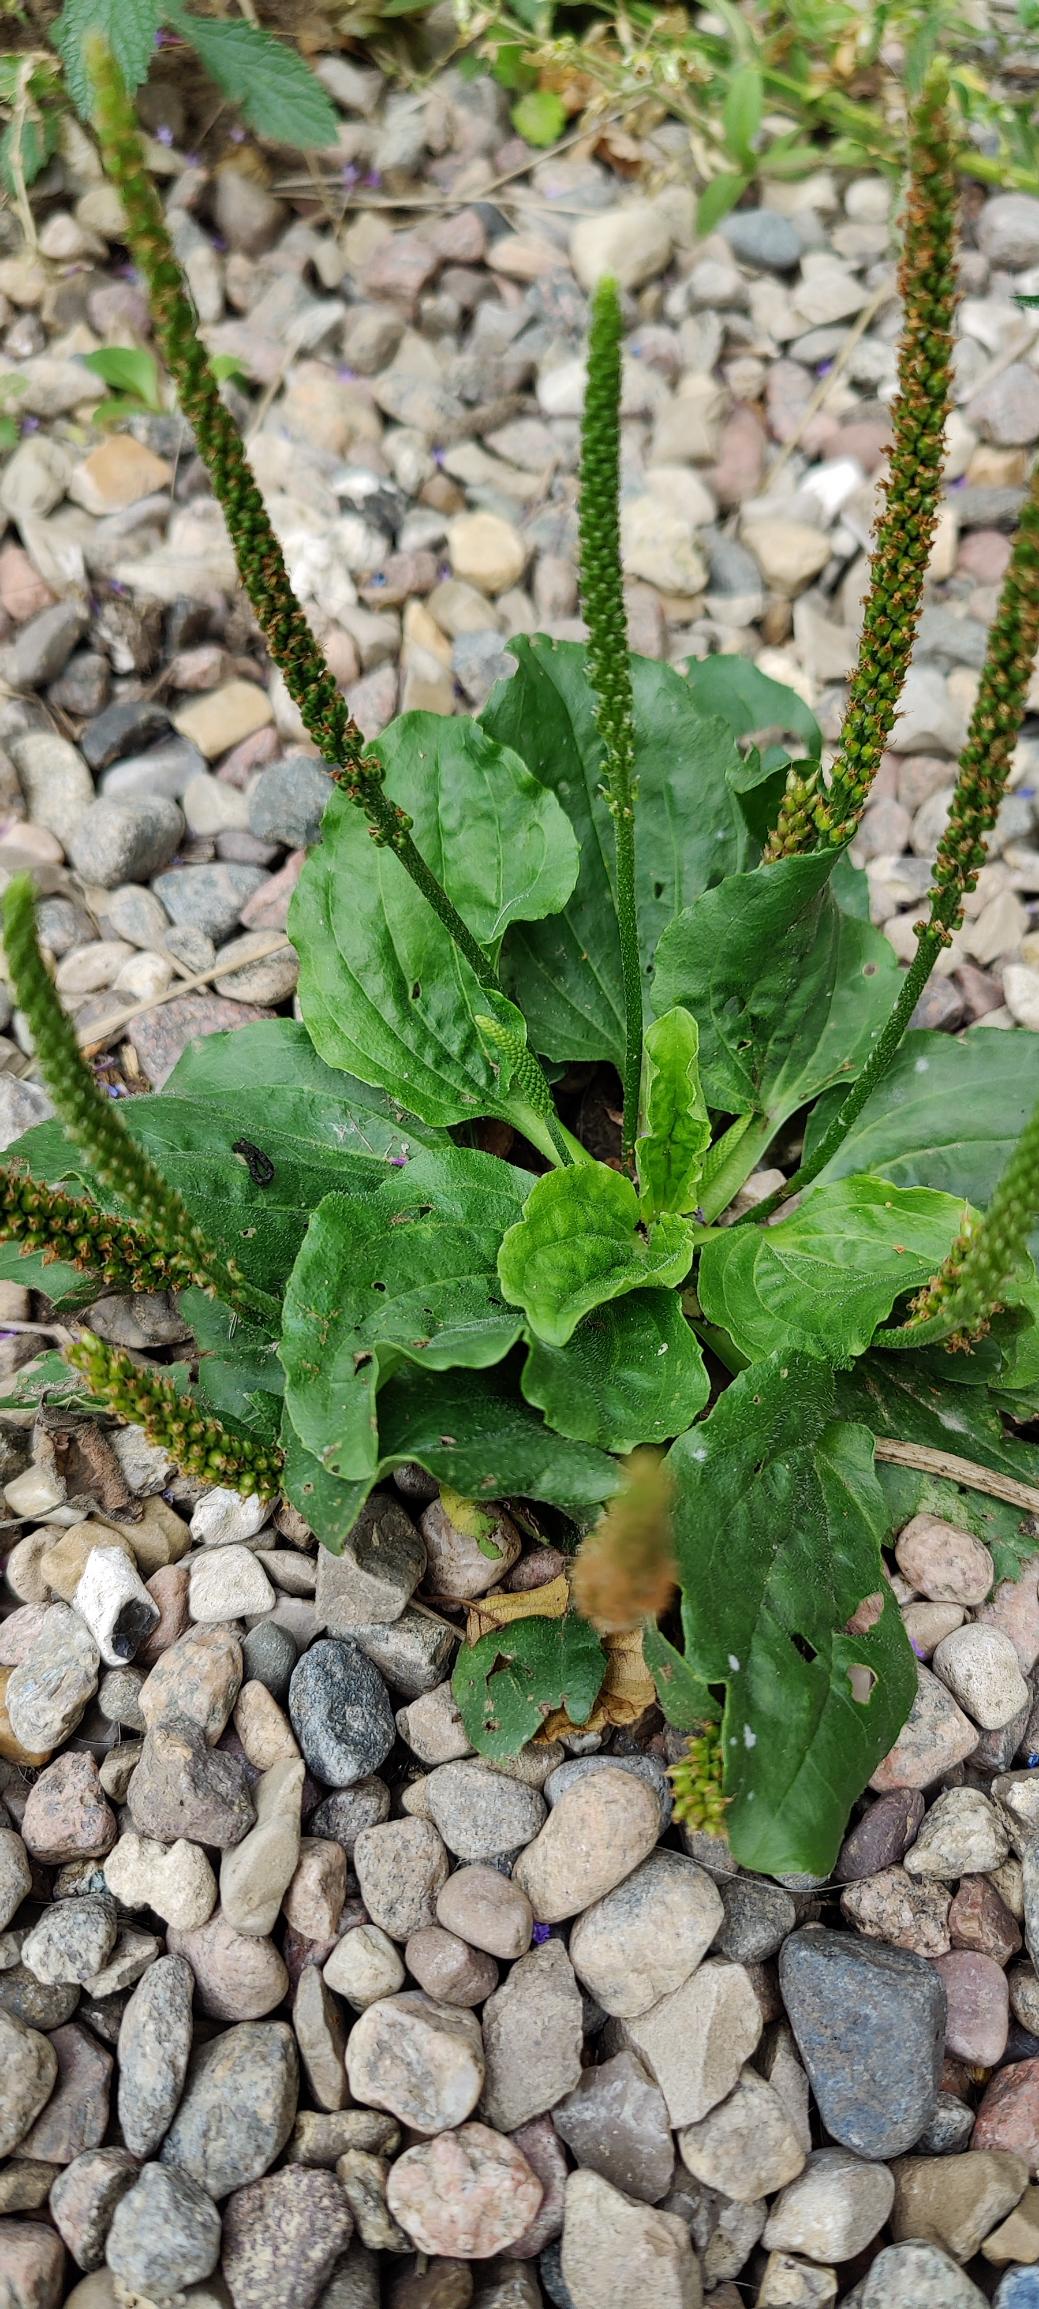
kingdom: Plantae
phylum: Tracheophyta
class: Magnoliopsida
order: Lamiales
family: Plantaginaceae
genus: Plantago
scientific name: Plantago major
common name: Glat vejbred
